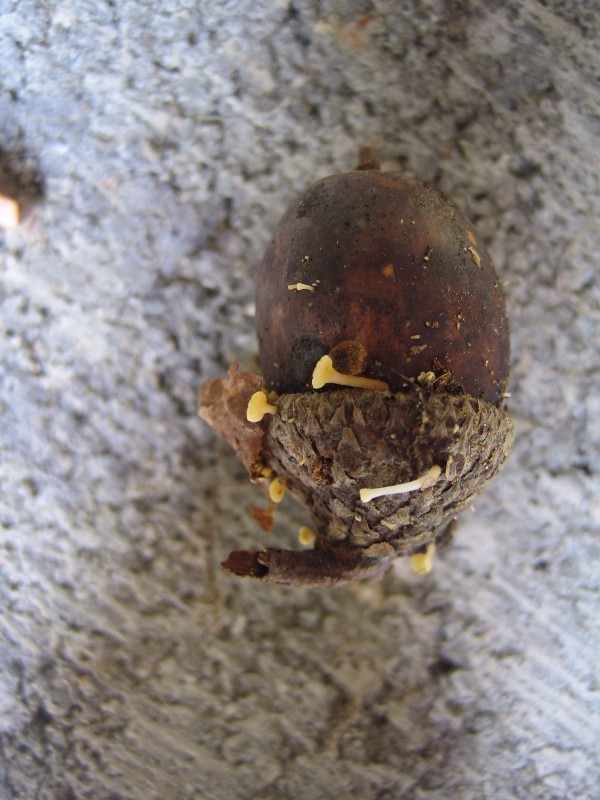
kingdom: Fungi
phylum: Ascomycota
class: Leotiomycetes
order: Helotiales
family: Helotiaceae
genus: Hymenoscyphus
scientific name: Hymenoscyphus fructigenus
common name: frugt-stilkskive
